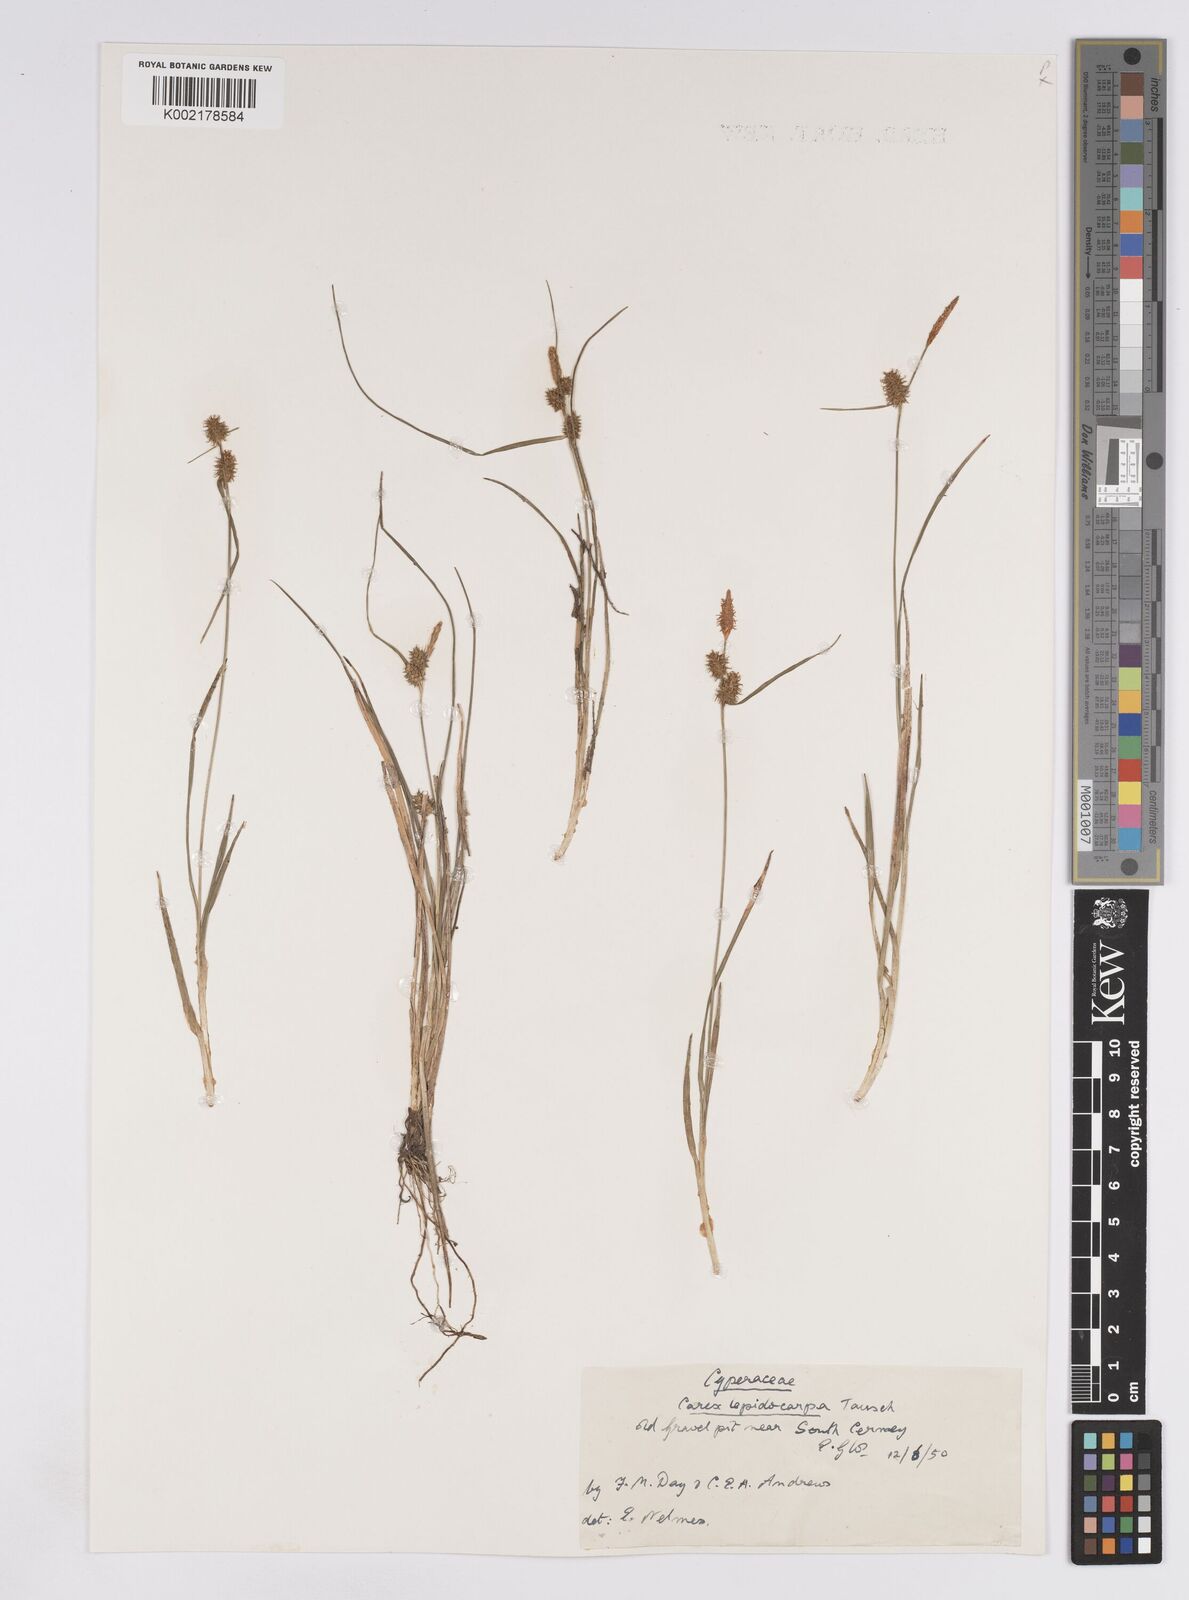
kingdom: Plantae
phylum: Tracheophyta
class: Liliopsida
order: Poales
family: Cyperaceae
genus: Carex
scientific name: Carex lepidocarpa
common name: Long-stalked yellow-sedge
